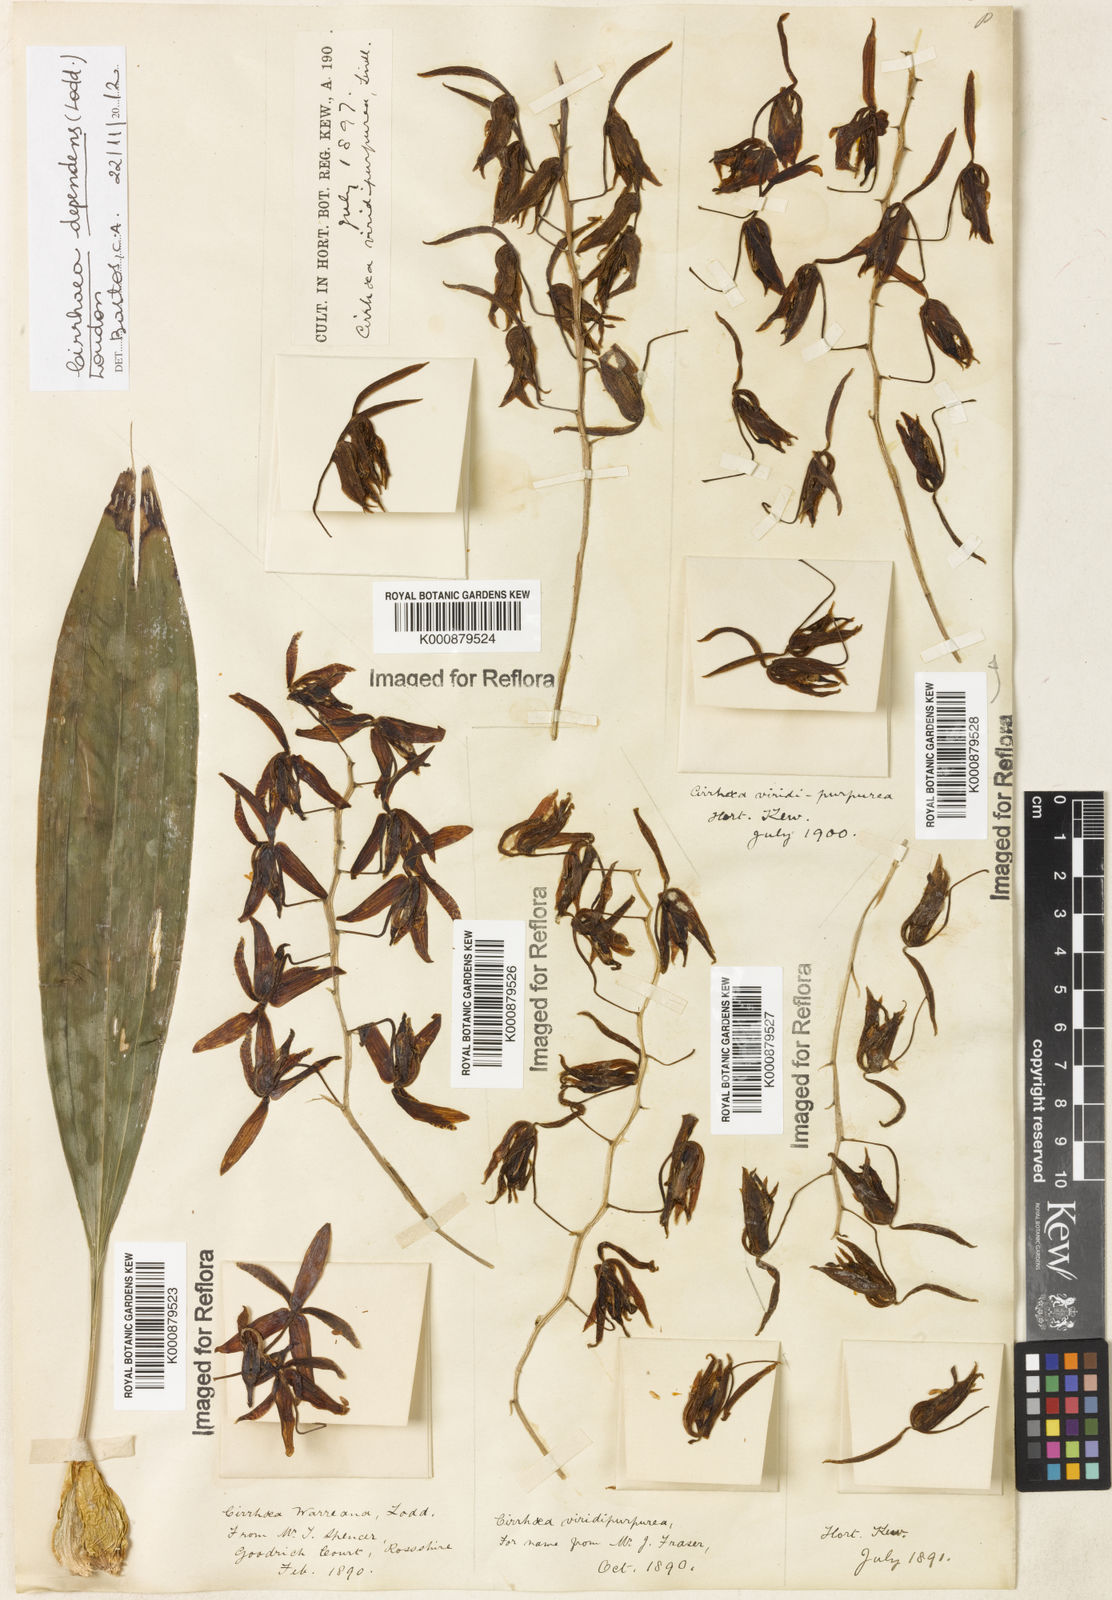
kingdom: Plantae
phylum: Tracheophyta
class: Liliopsida
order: Asparagales
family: Orchidaceae
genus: Cirrhaea
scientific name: Cirrhaea
